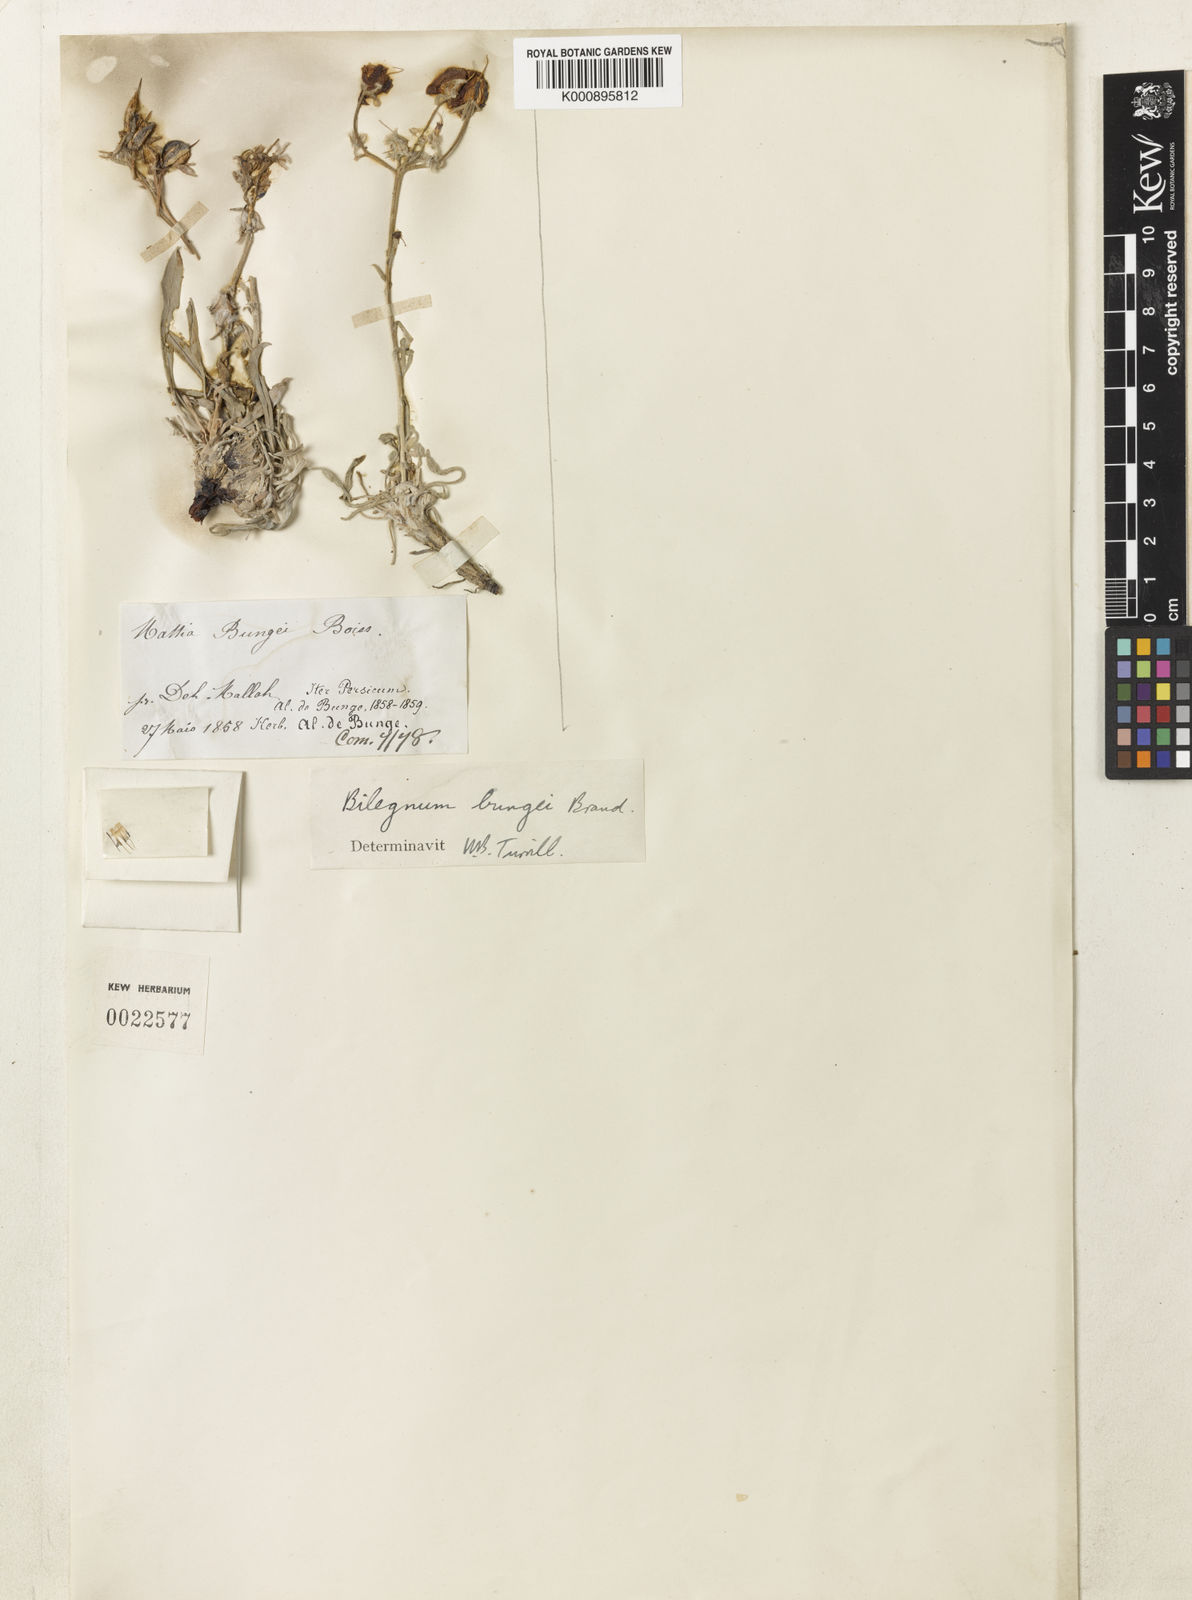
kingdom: Plantae
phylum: Tracheophyta
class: Magnoliopsida
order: Boraginales
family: Boraginaceae
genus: Rindera
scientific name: Rindera
